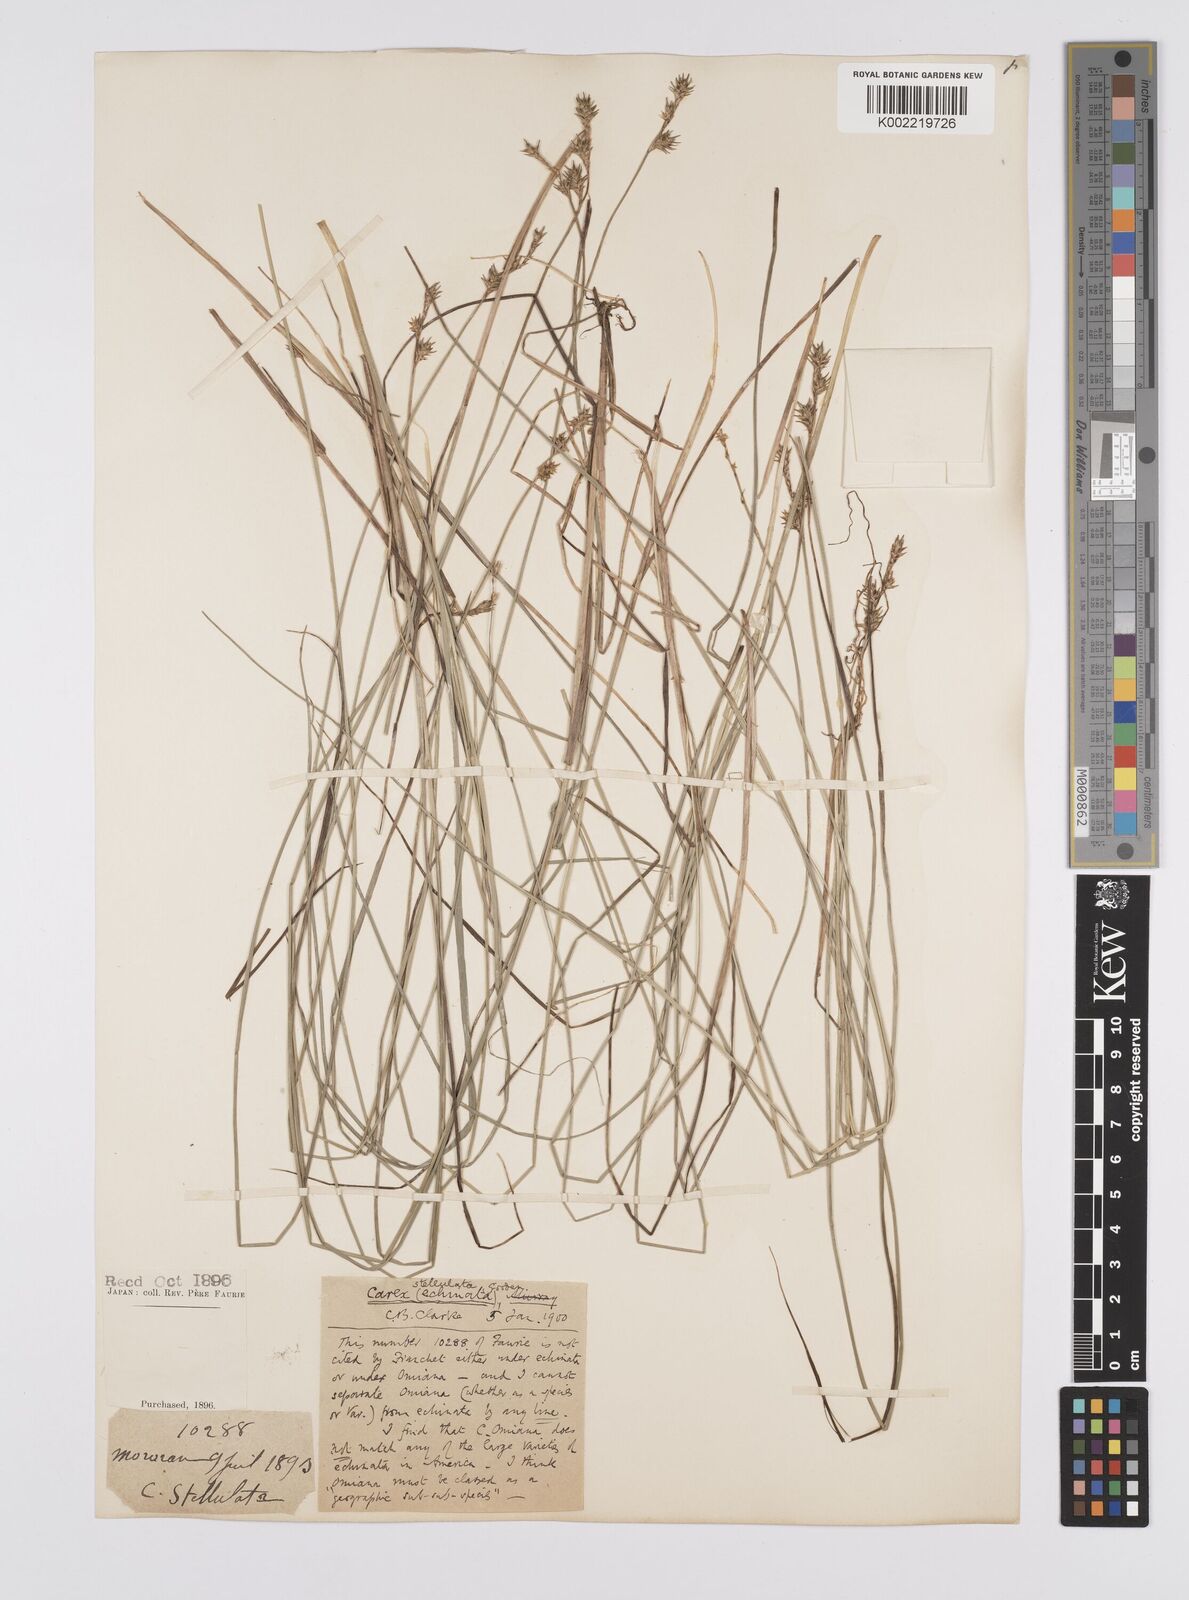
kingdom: Plantae
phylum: Tracheophyta
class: Liliopsida
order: Poales
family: Cyperaceae
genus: Carex
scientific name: Carex echinata
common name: Star sedge
